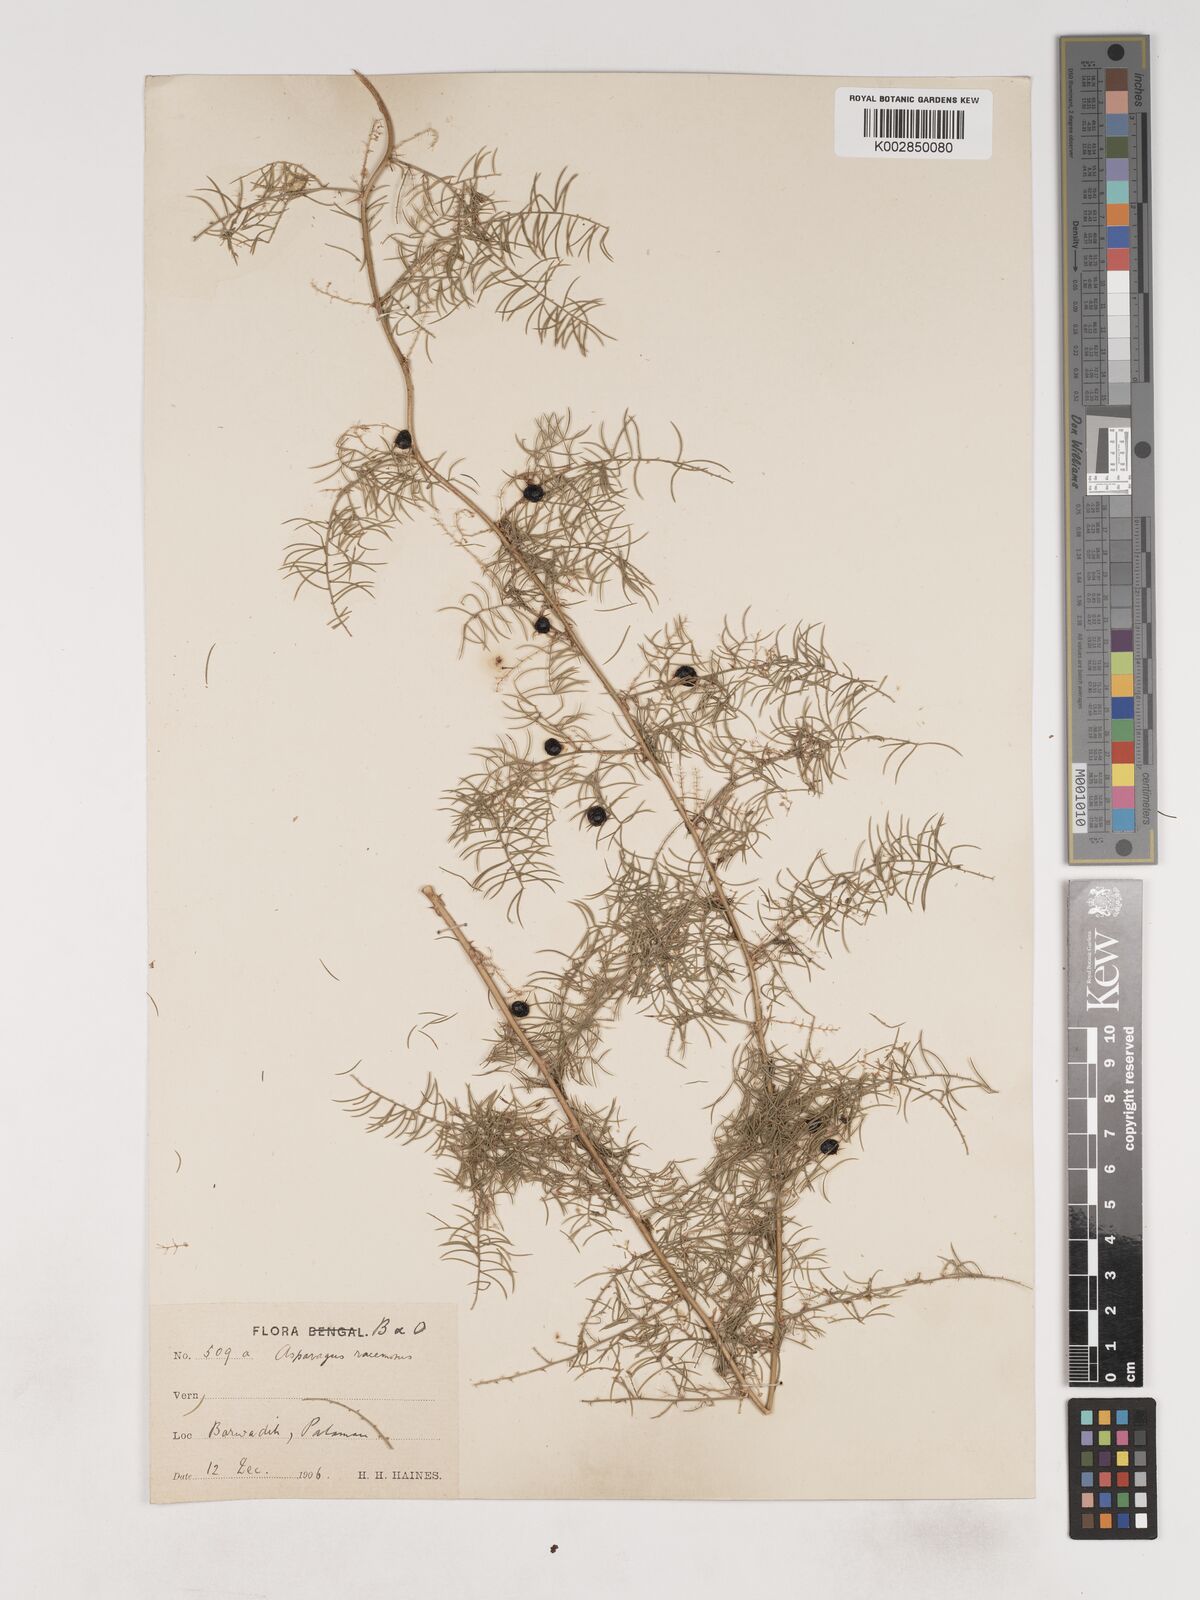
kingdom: Plantae
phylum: Tracheophyta
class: Liliopsida
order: Asparagales
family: Asparagaceae
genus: Asparagus
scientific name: Asparagus racemosus
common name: Asparagus-fern
